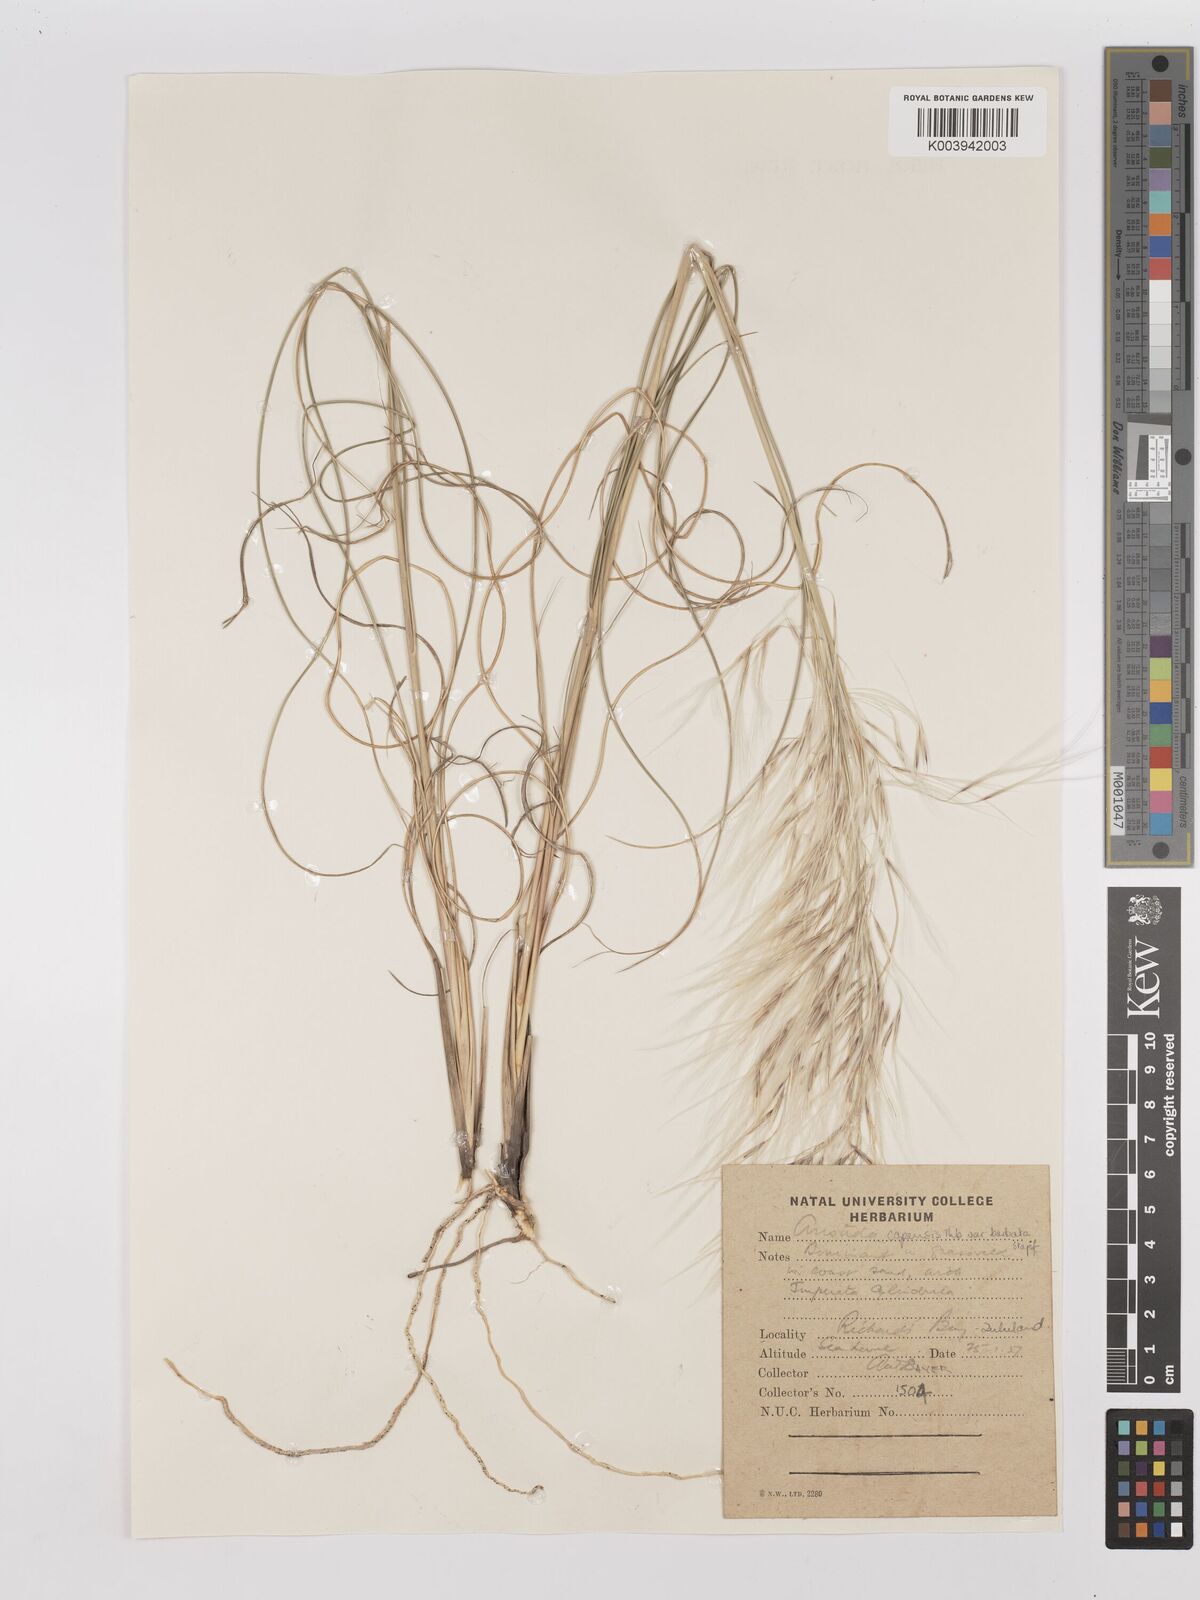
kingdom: Plantae
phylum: Tracheophyta
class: Liliopsida
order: Poales
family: Poaceae
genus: Stipagrostis
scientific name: Stipagrostis zeyheri
